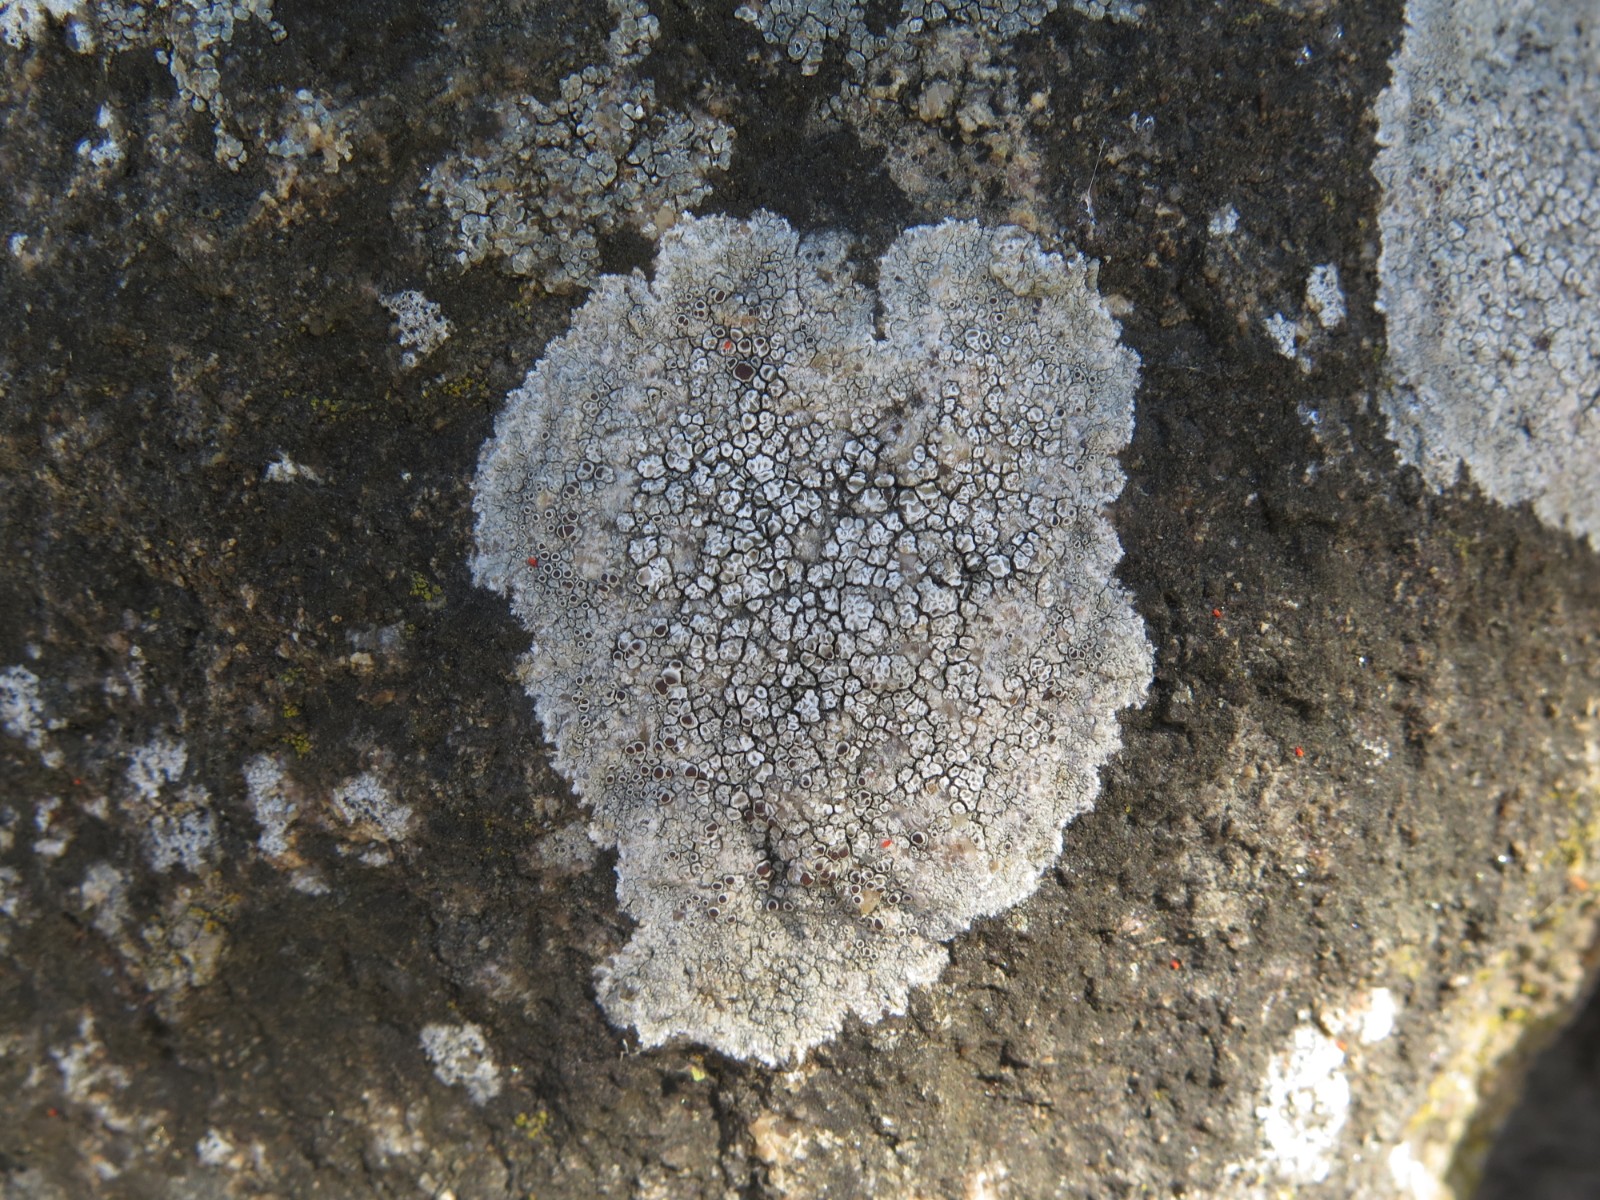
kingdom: Fungi
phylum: Ascomycota
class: Lecanoromycetes
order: Lecanorales
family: Lecanoraceae
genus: Lecanora
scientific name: Lecanora campestris
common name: mur-kantskivelav
